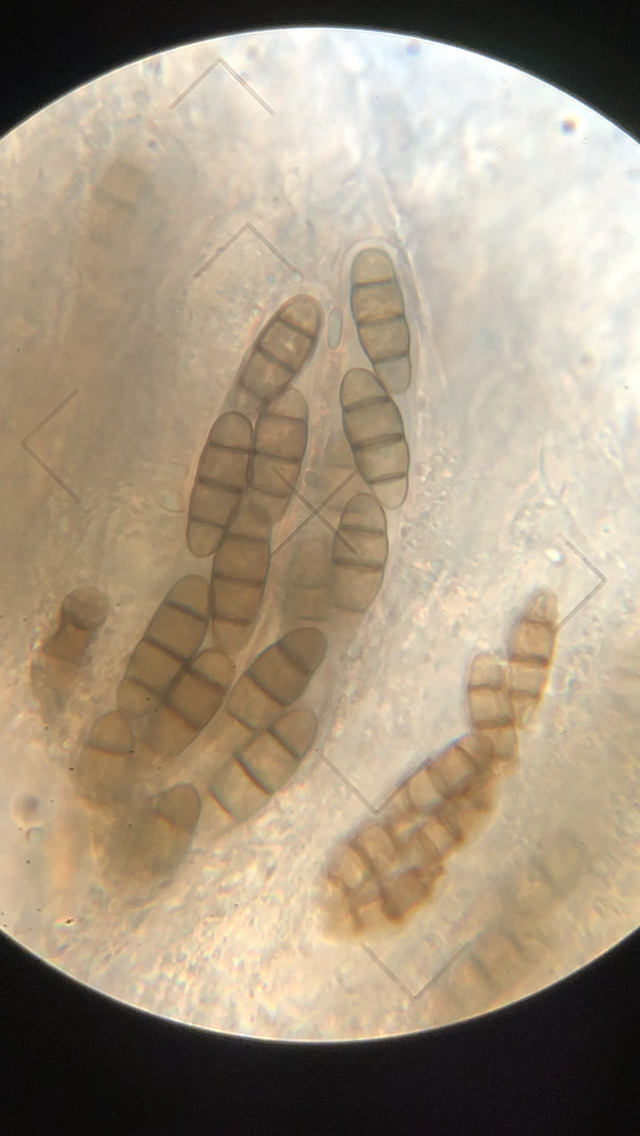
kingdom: Fungi
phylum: Ascomycota
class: Dothideomycetes
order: Hysteriales
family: Hysteriaceae
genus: Hysterium
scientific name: Hysterium acuminatum
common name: almindelig kulmund
